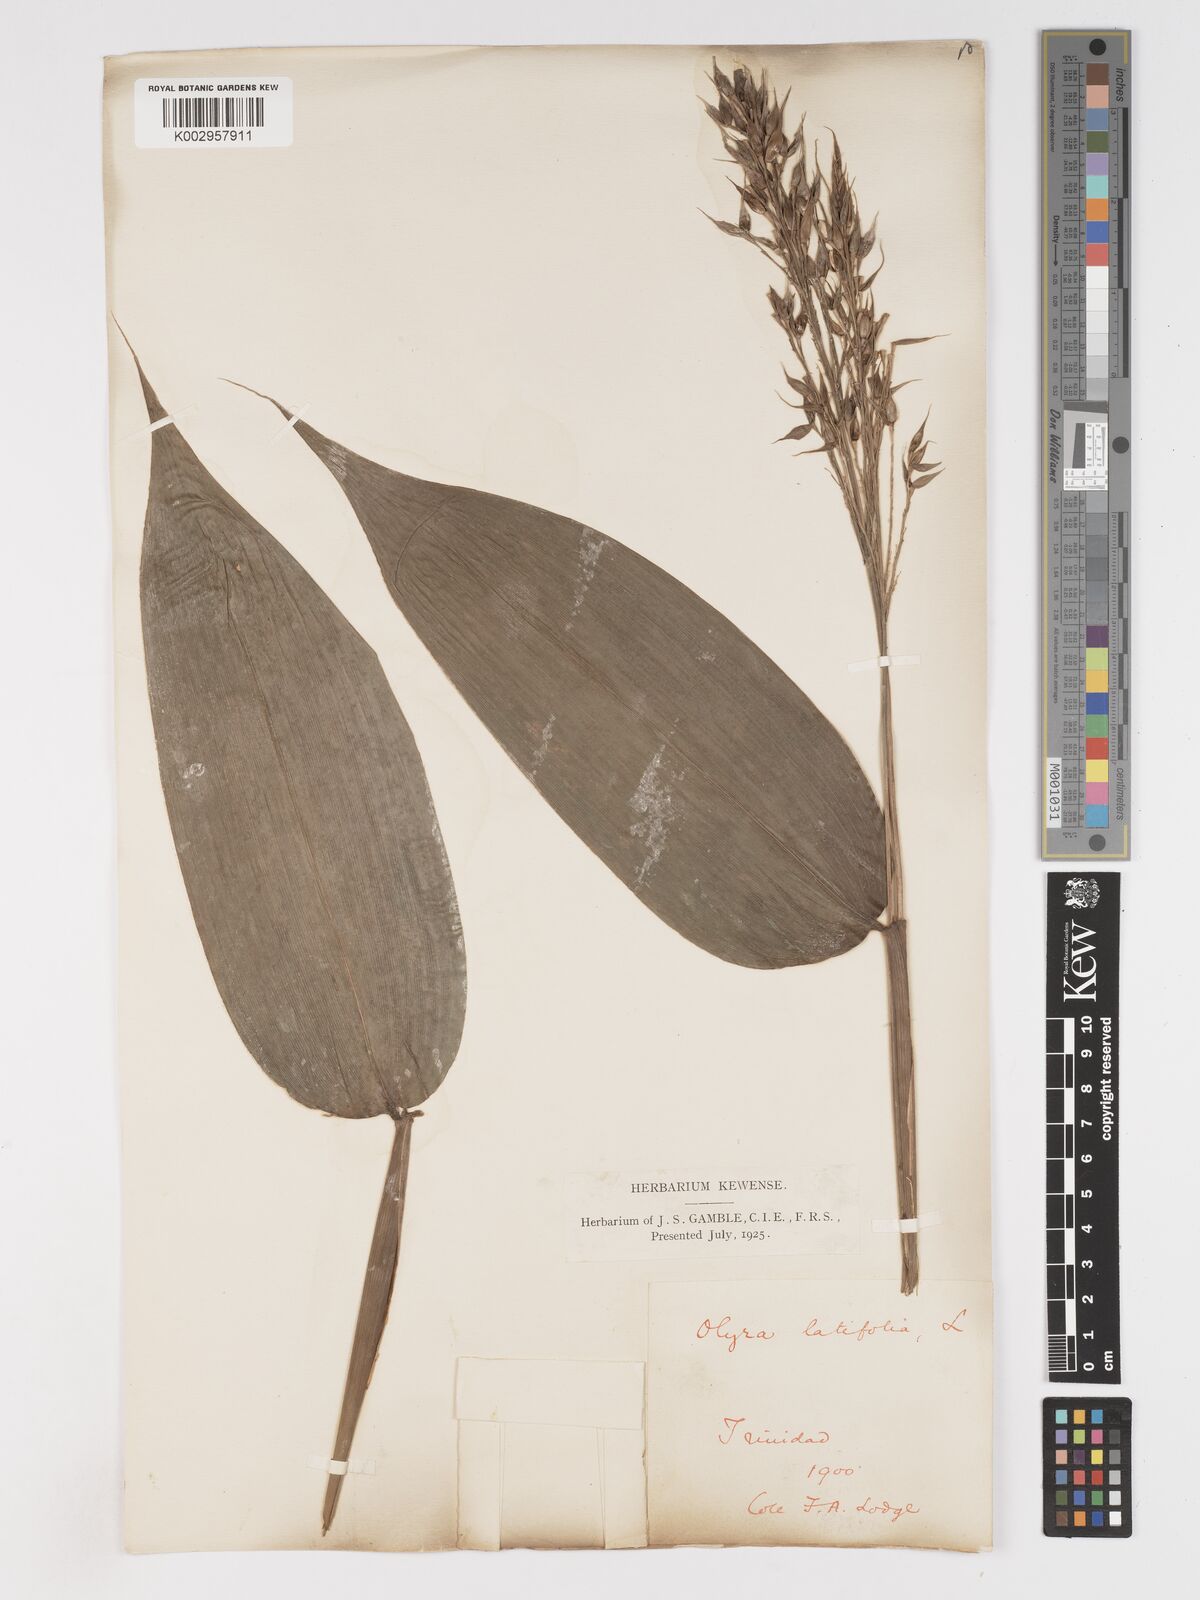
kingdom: Plantae
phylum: Tracheophyta
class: Liliopsida
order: Poales
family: Poaceae
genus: Olyra
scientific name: Olyra latifolia
